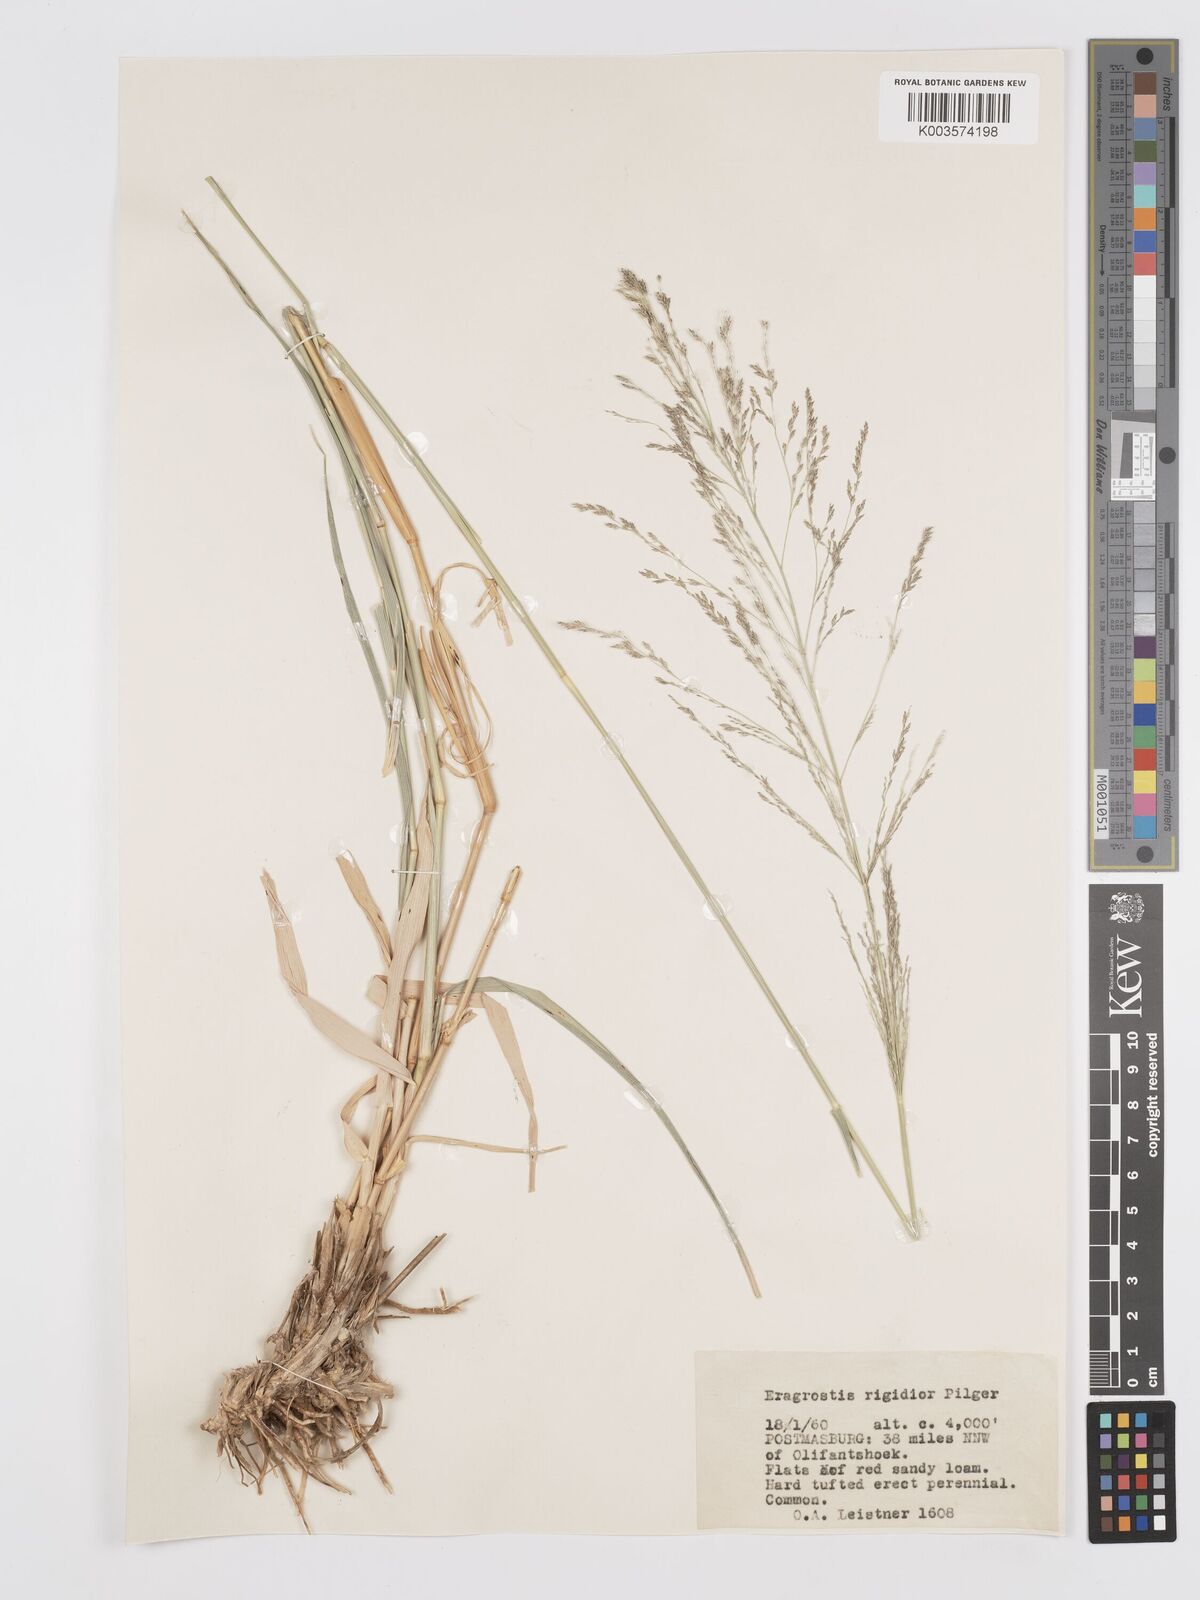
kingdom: Plantae
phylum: Tracheophyta
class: Liliopsida
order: Poales
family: Poaceae
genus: Eragrostis
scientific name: Eragrostis cylindriflora
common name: Cylinderflower lovegrass
